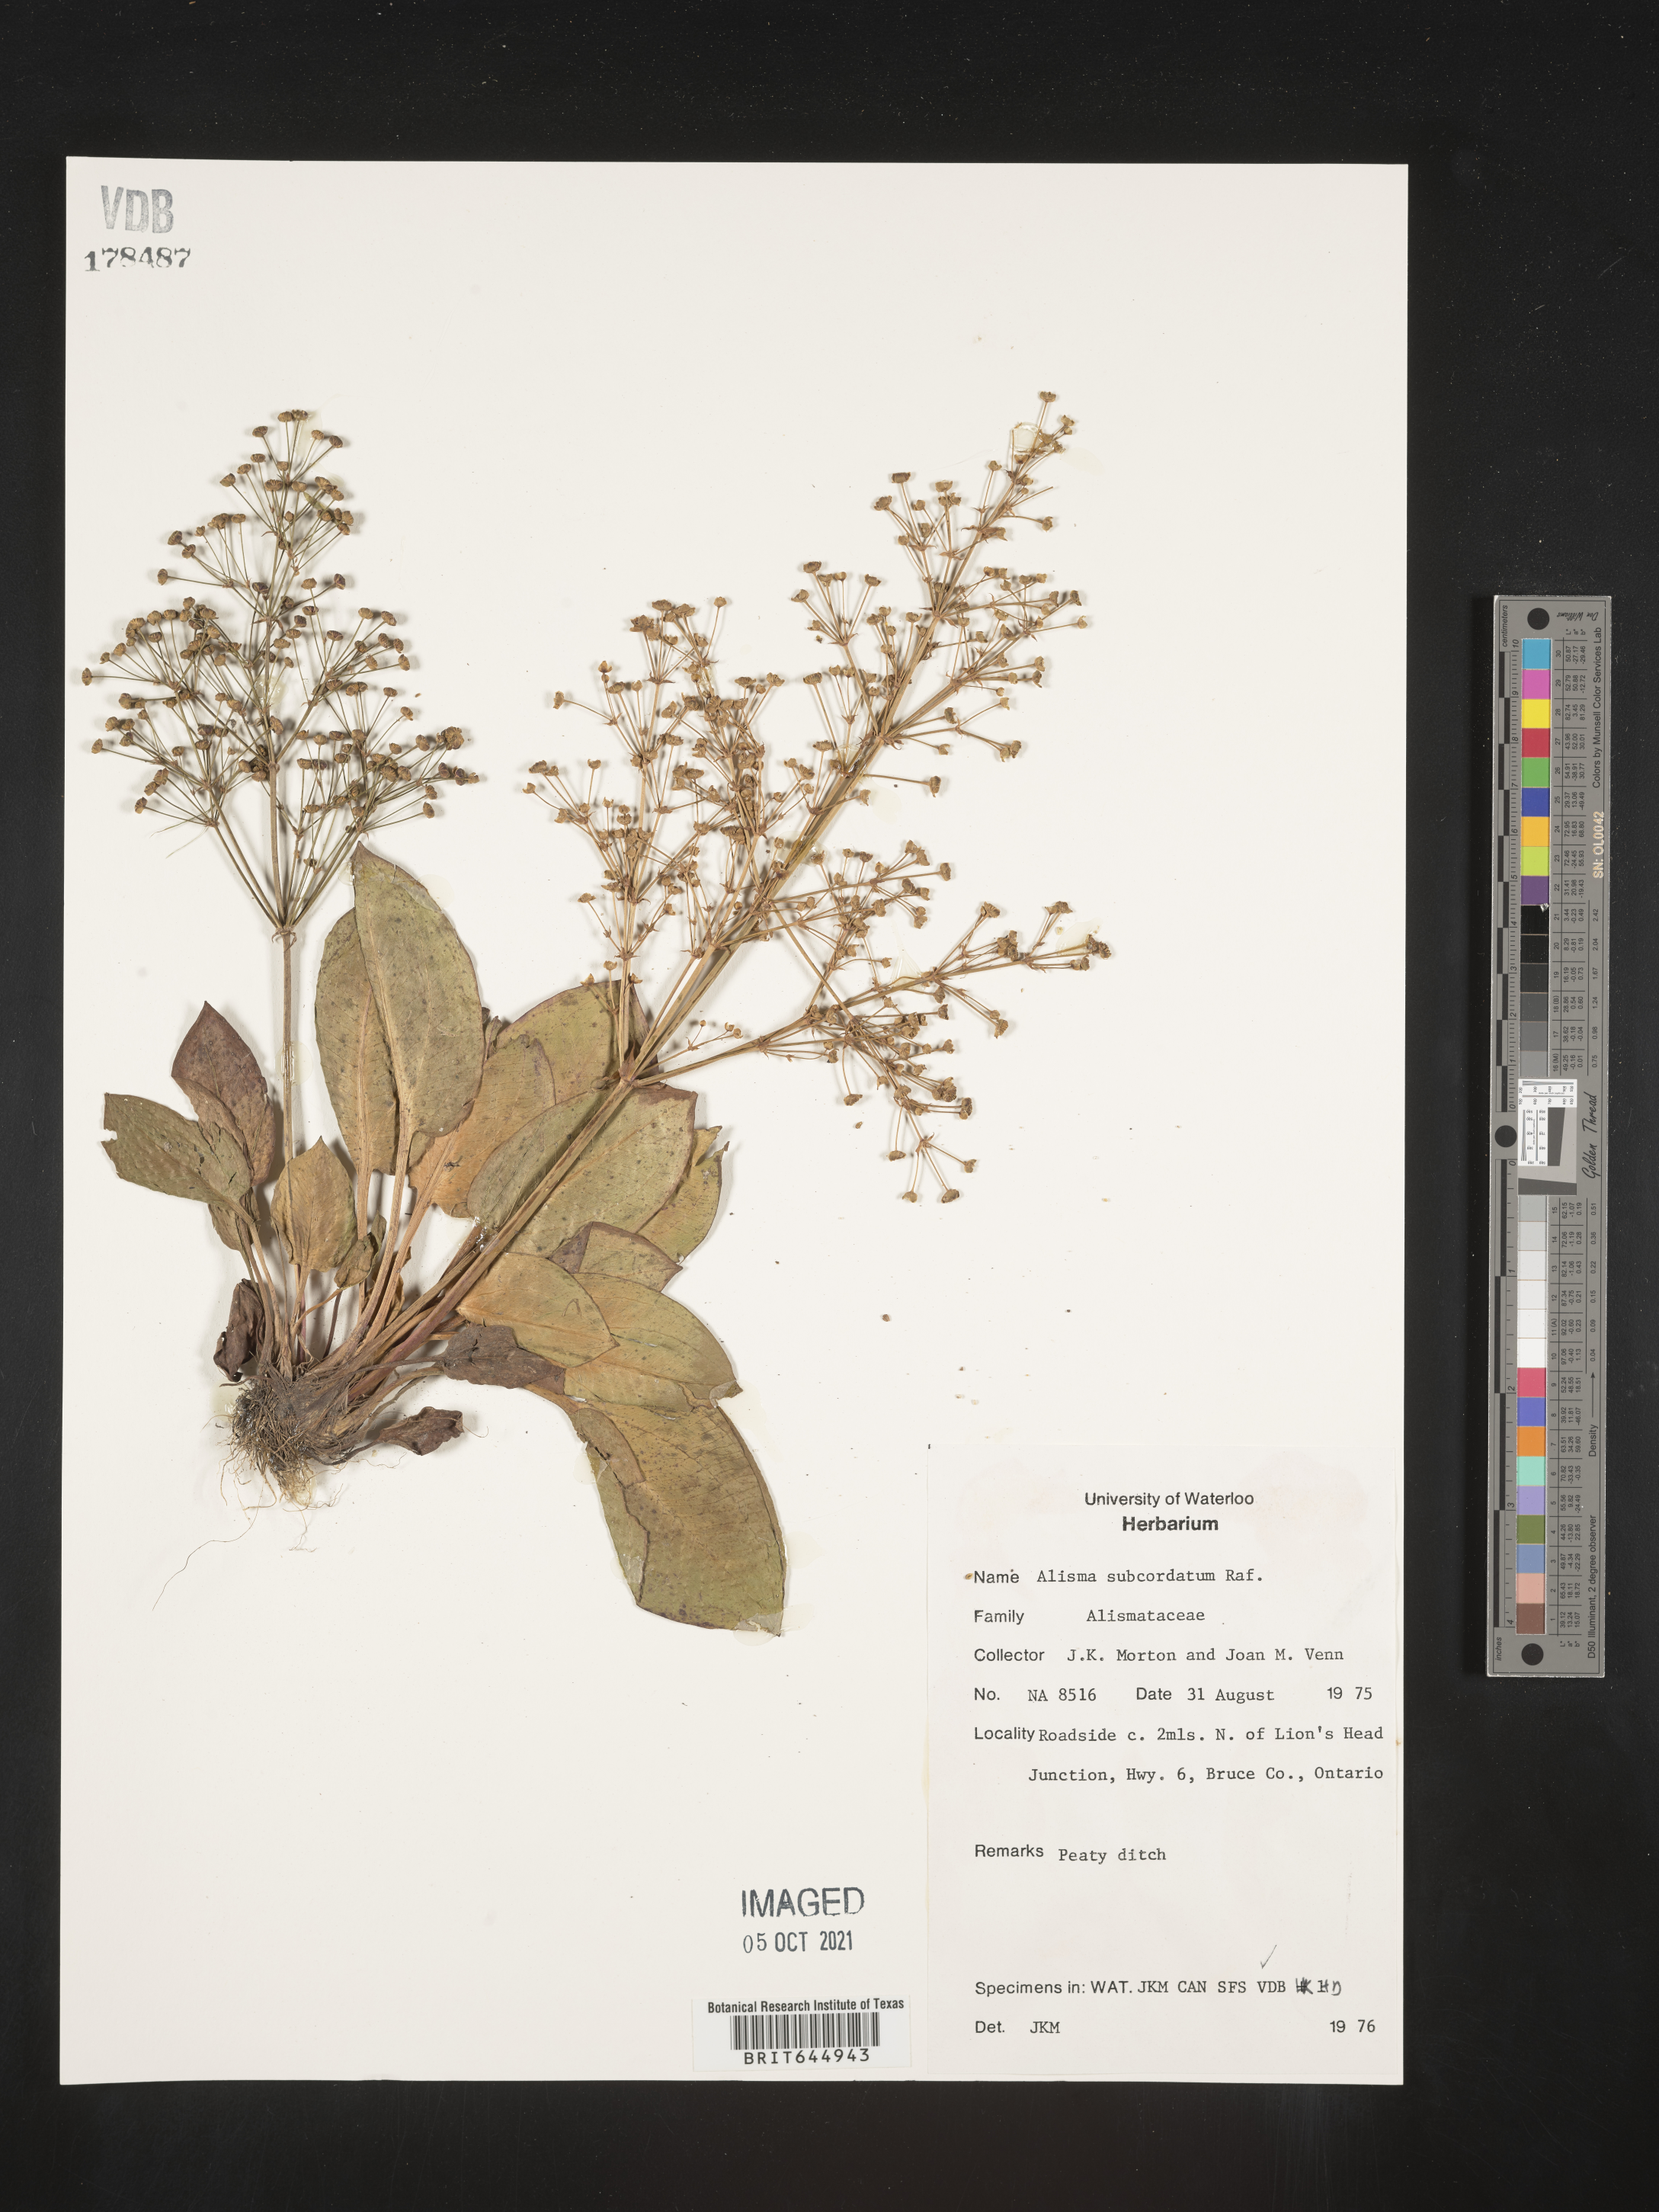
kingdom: Plantae
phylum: Tracheophyta
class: Liliopsida
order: Alismatales
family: Alismataceae
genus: Alisma
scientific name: Alisma subcordatum
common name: Southern water-plantain
